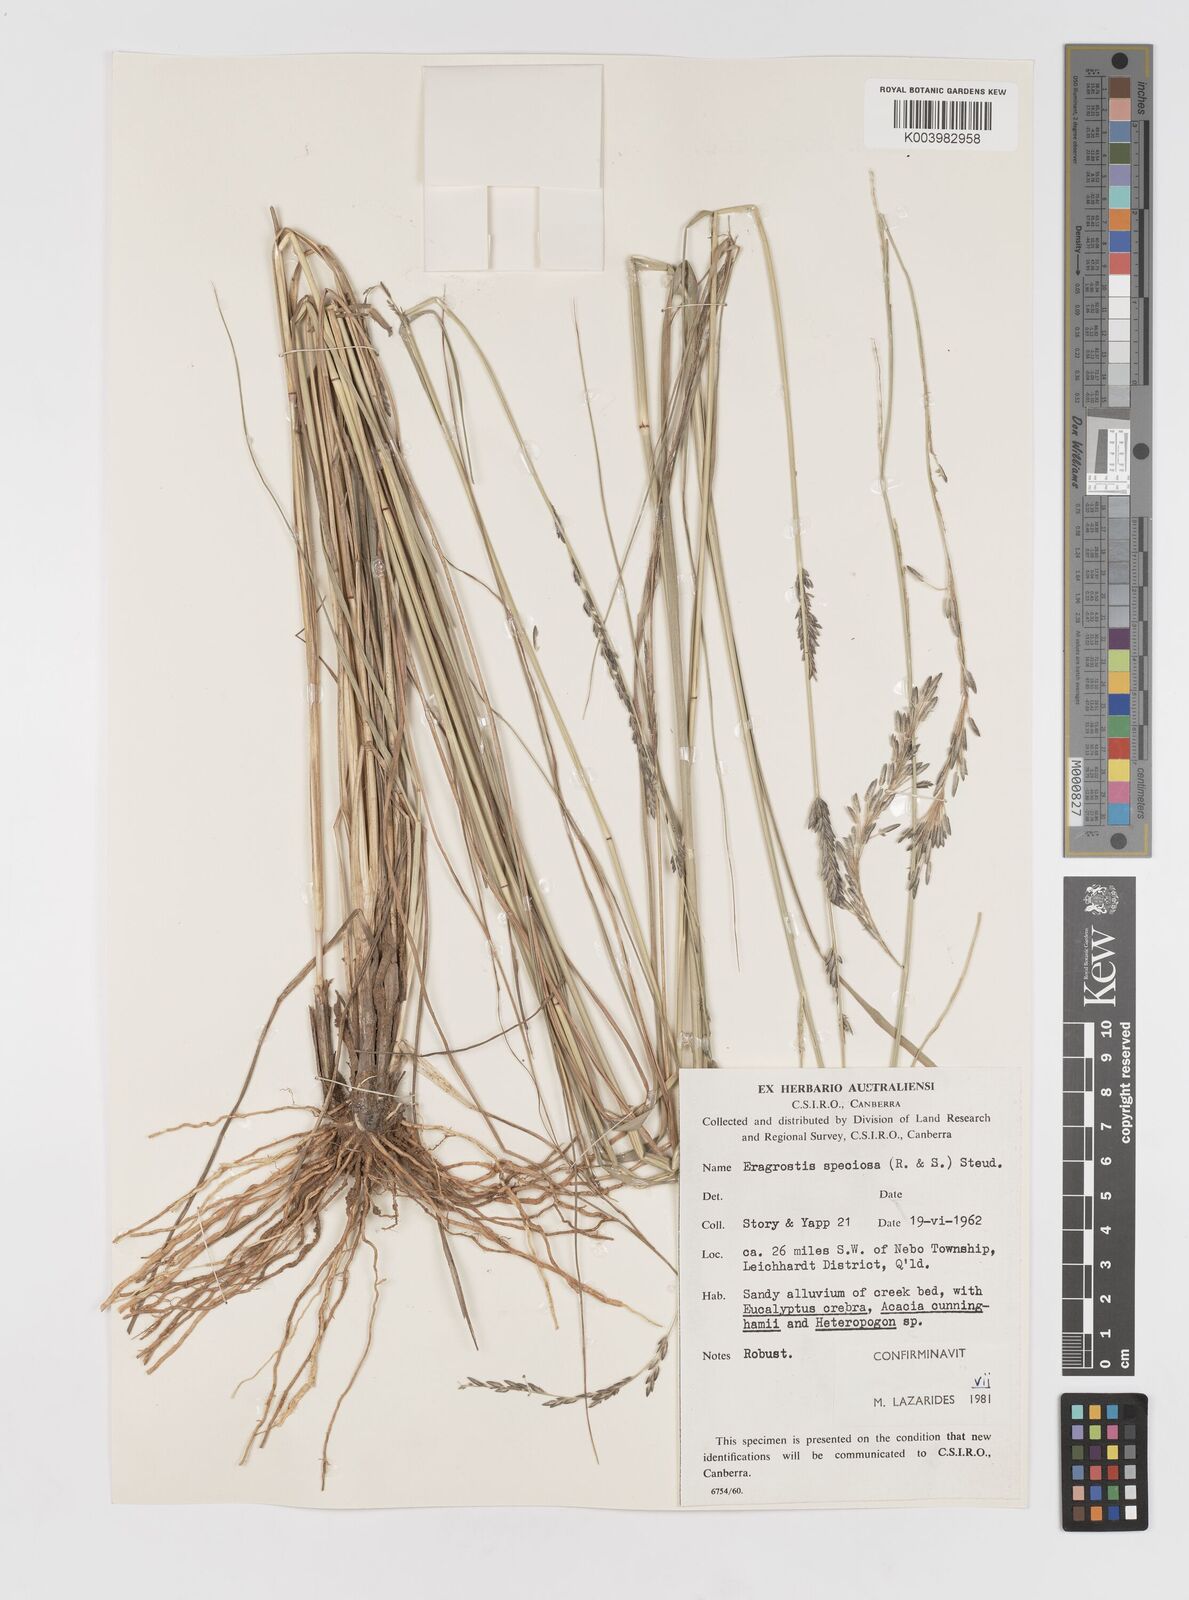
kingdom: Plantae
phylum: Tracheophyta
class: Liliopsida
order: Poales
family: Poaceae
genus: Eragrostis
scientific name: Eragrostis speciosa
